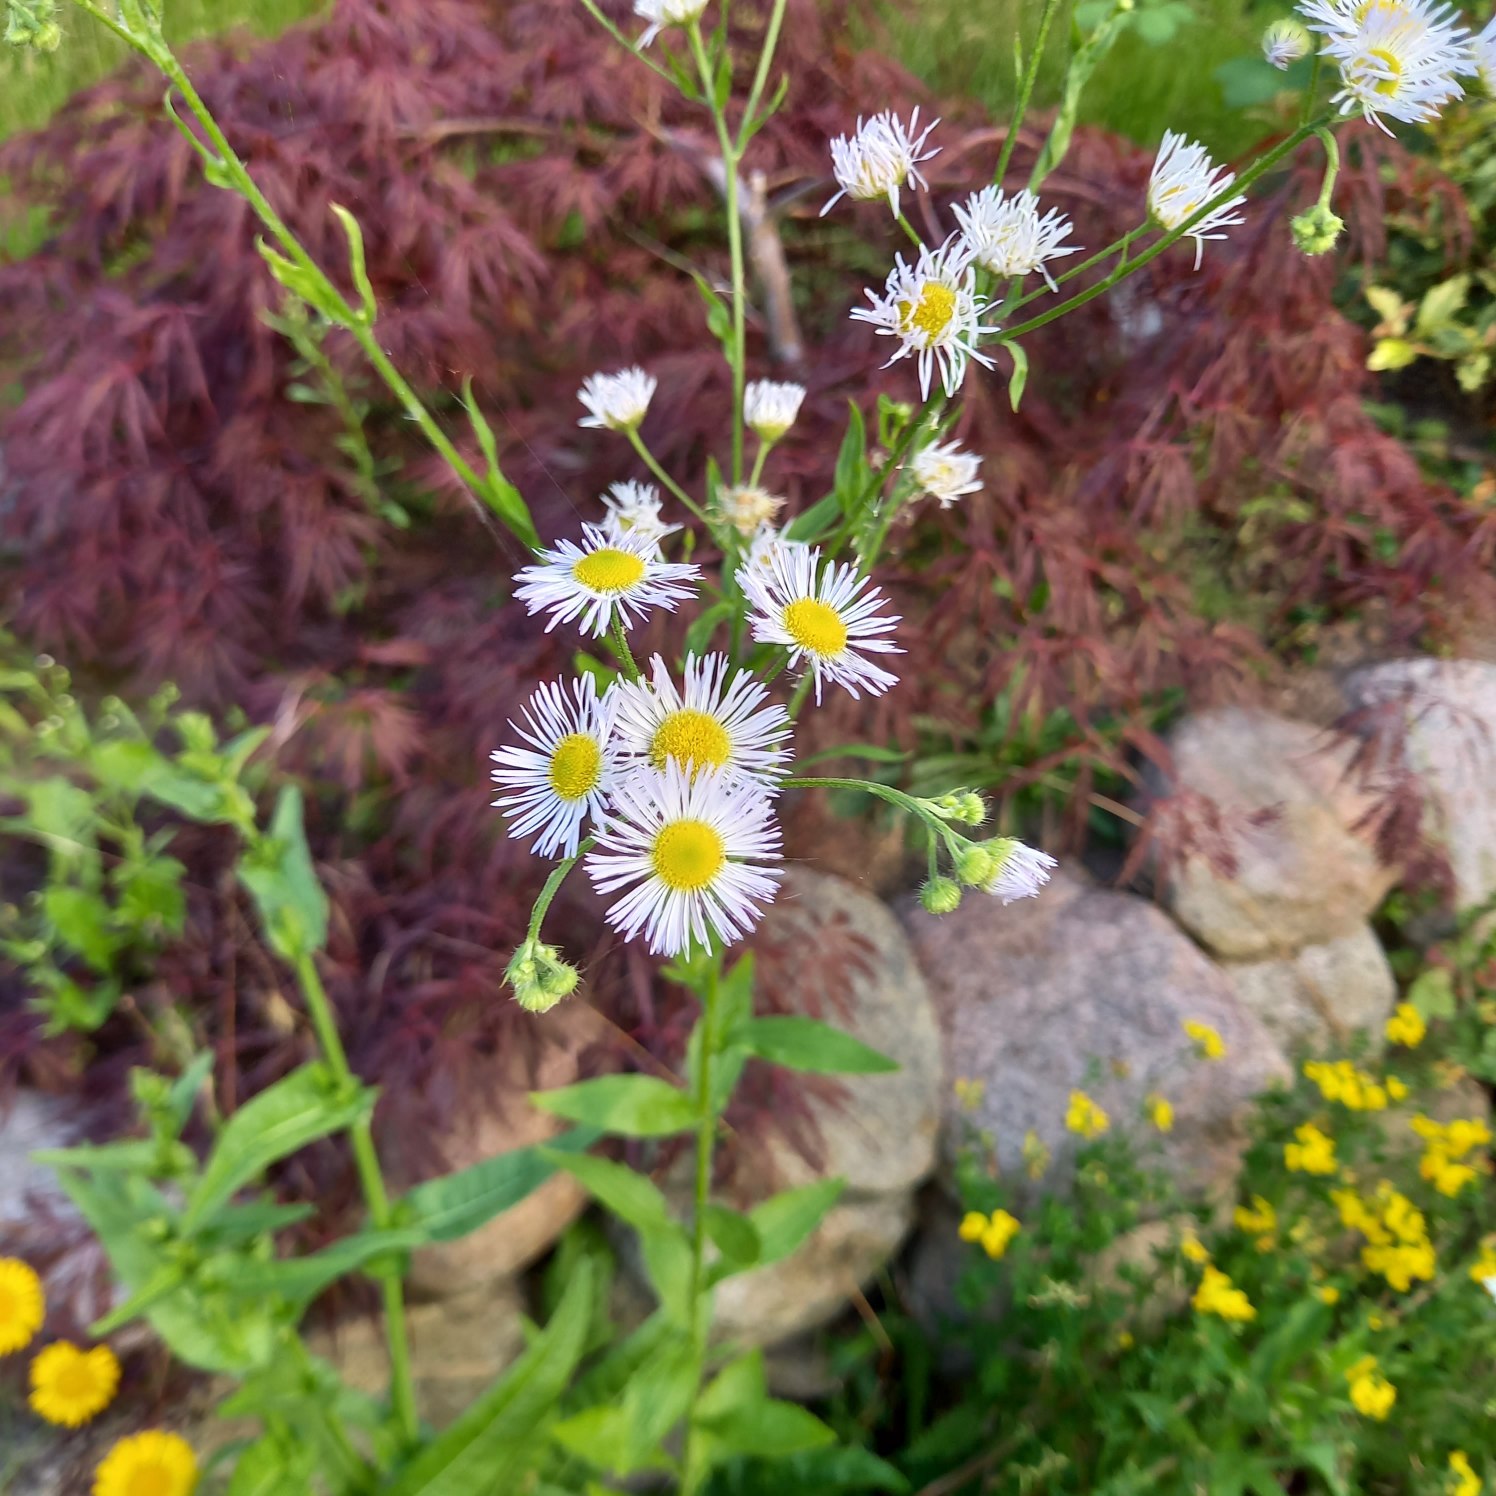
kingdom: Plantae
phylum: Tracheophyta
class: Magnoliopsida
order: Asterales
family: Asteraceae
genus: Erigeron
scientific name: Erigeron annuus
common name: Smalstråle
